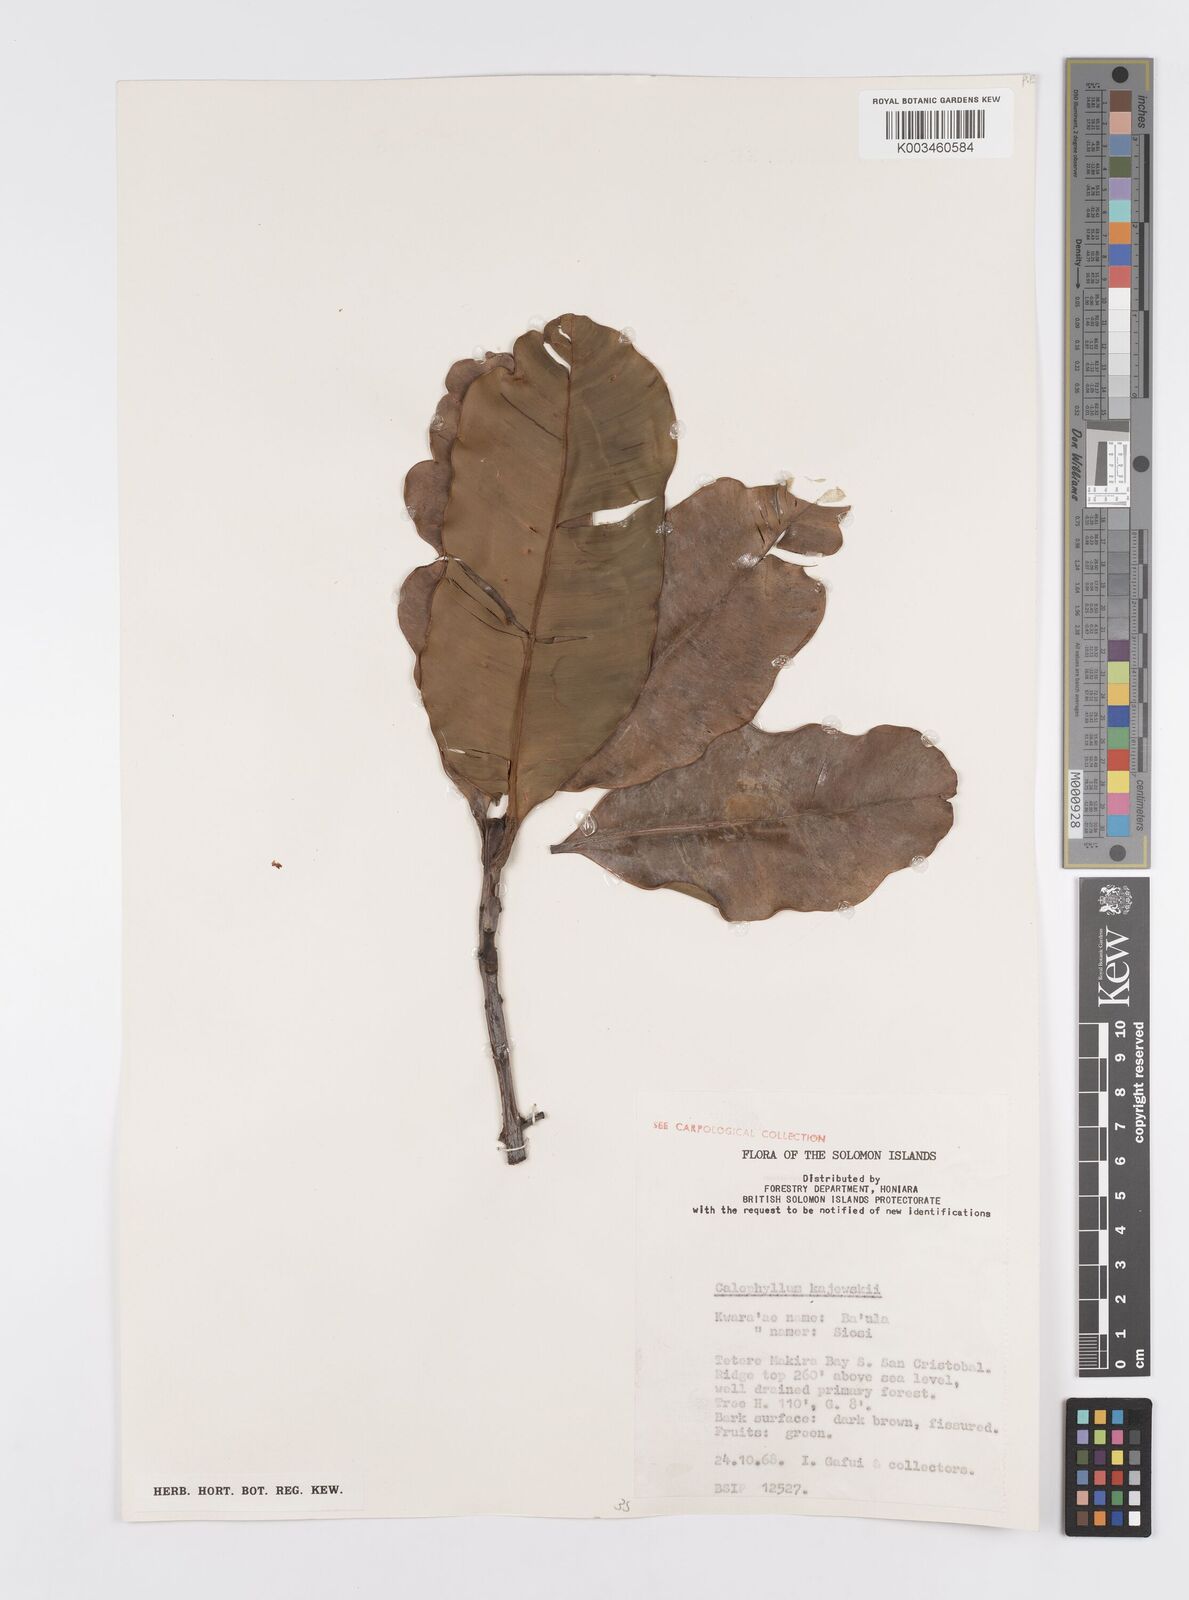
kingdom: Plantae
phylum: Tracheophyta
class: Magnoliopsida
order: Malpighiales
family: Calophyllaceae
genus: Calophyllum
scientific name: Calophyllum peekelii
